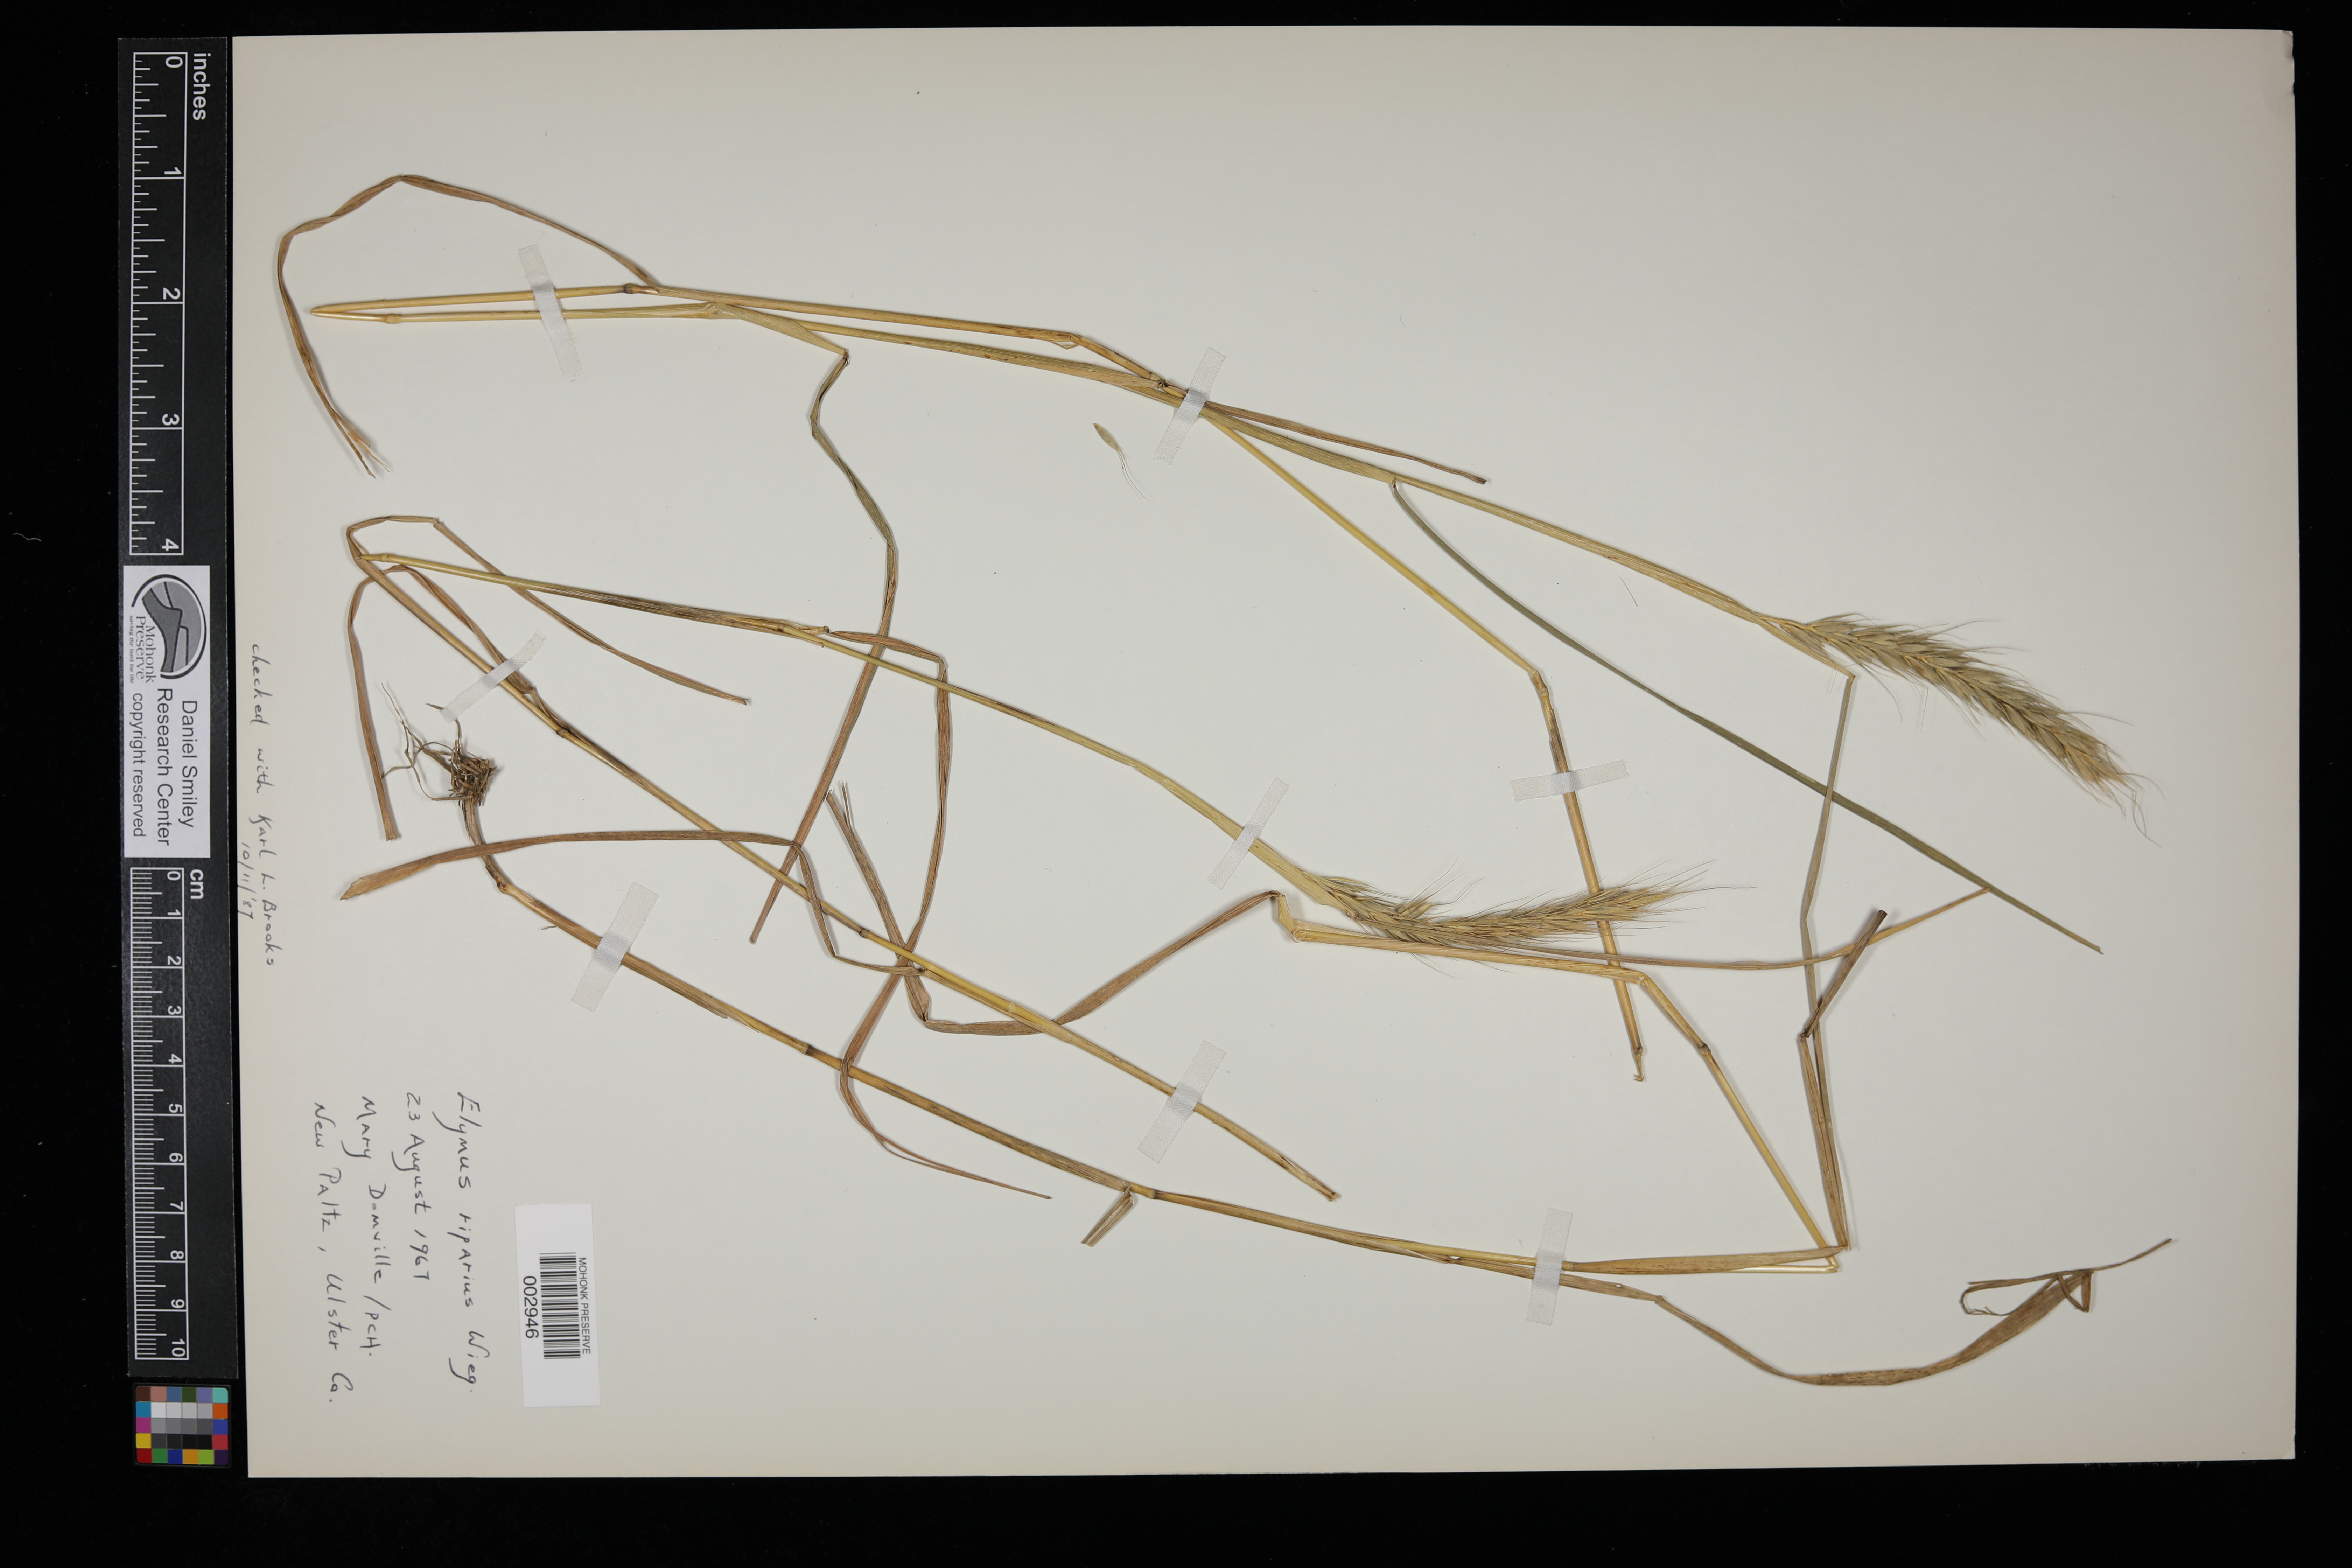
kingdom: Plantae
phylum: Tracheophyta
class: Liliopsida
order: Poales
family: Poaceae
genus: Elymus
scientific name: Elymus riparius
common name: Eastern riverbank wild rye
